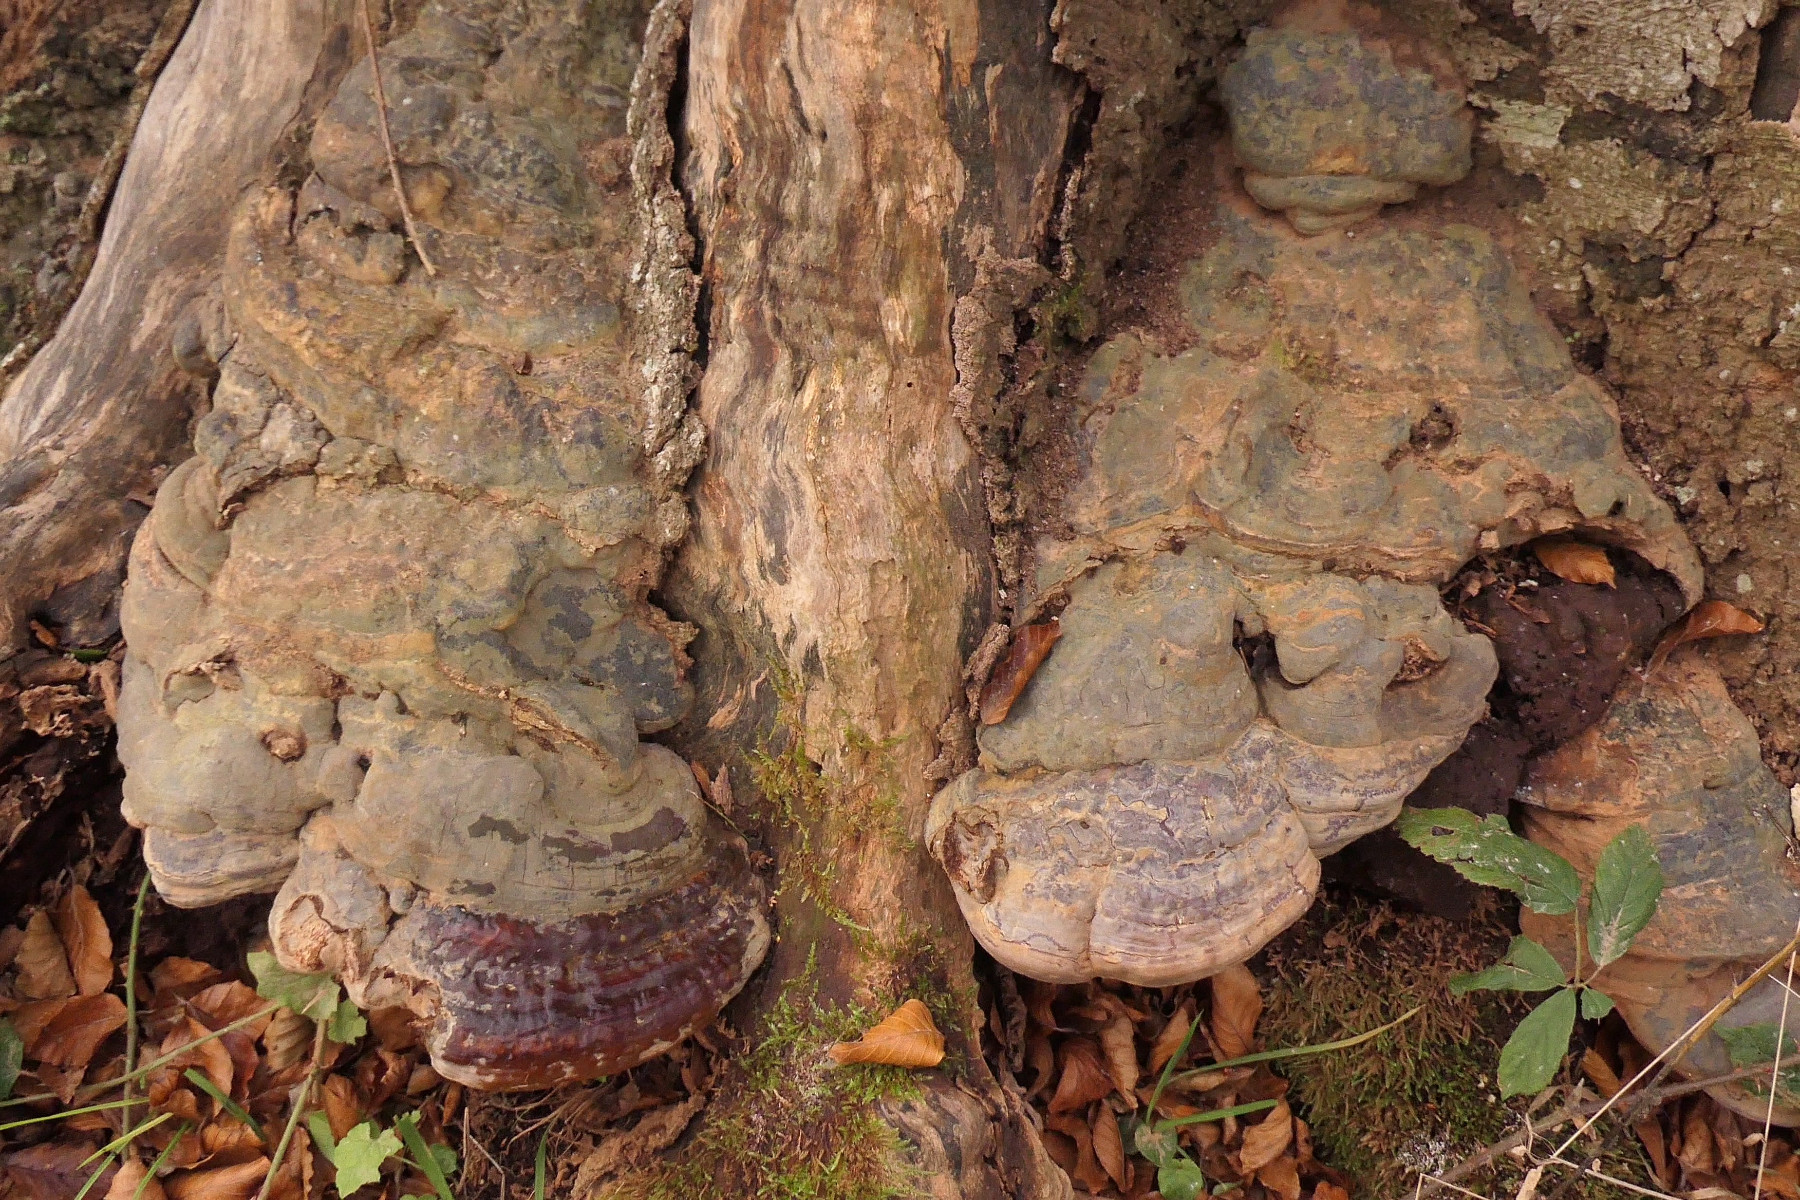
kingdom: Fungi
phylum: Basidiomycota
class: Agaricomycetes
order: Polyporales
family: Polyporaceae
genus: Ganoderma
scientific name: Ganoderma pfeifferi
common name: kobberrød lakporesvamp
